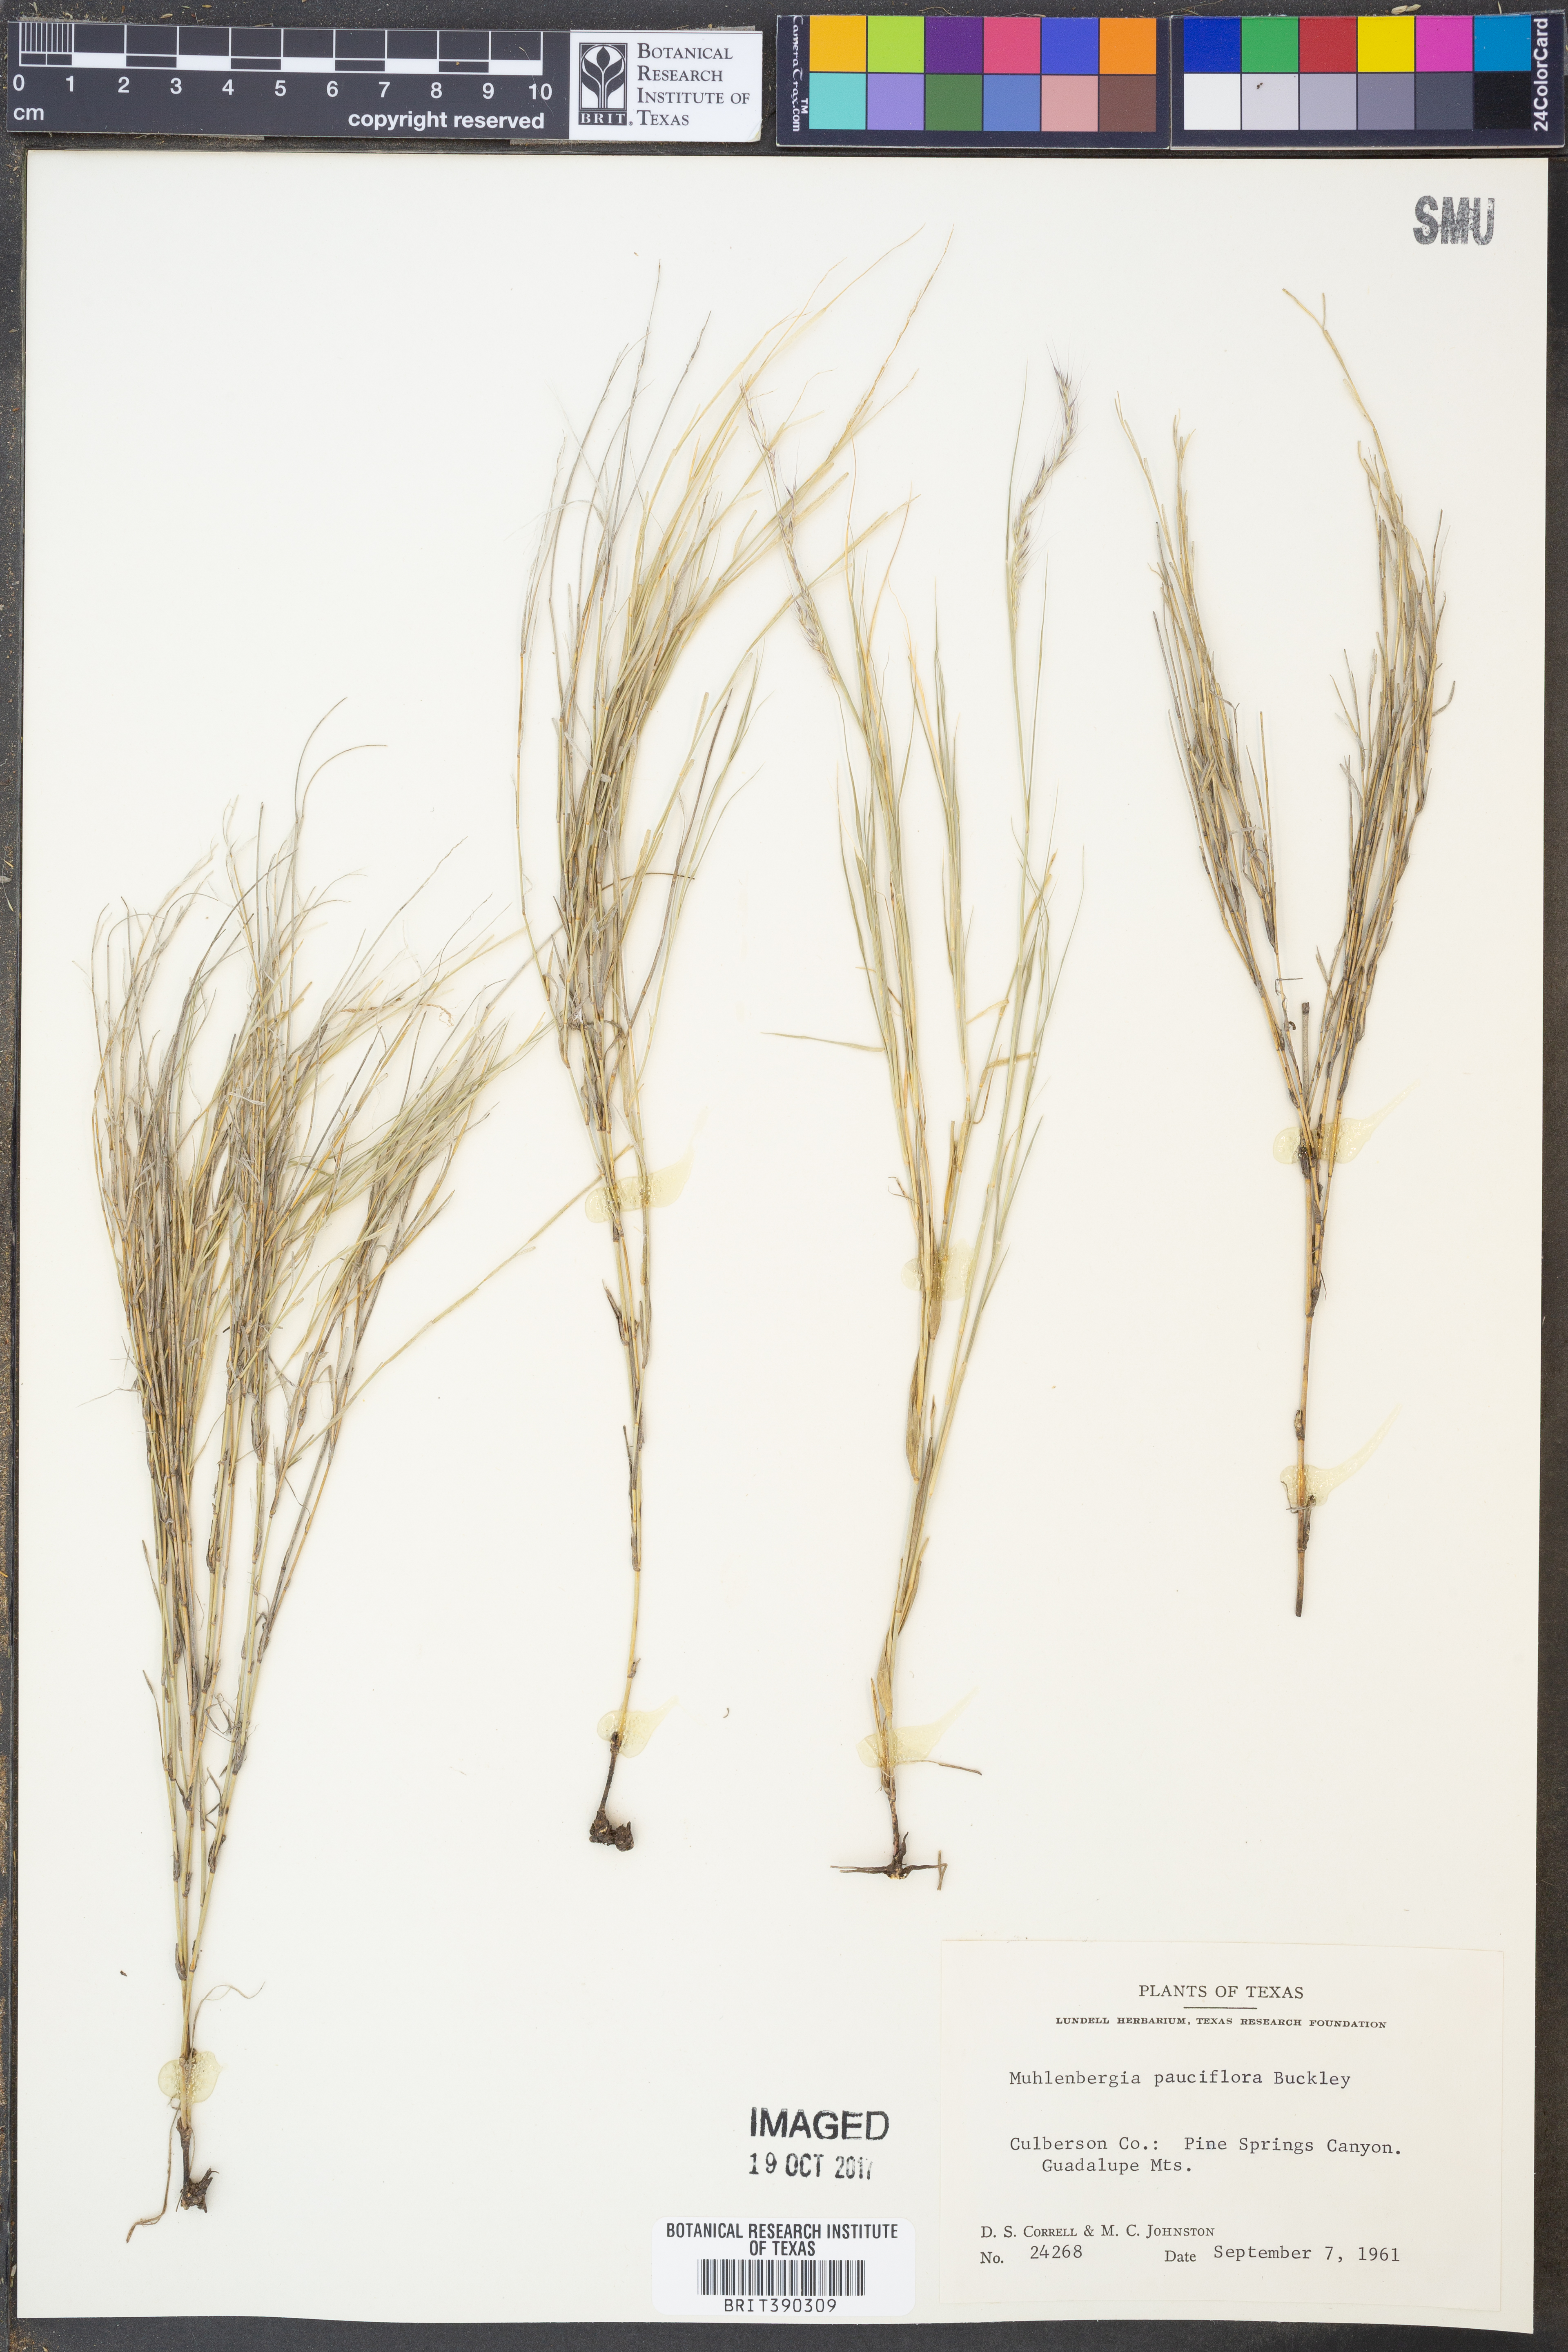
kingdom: Plantae
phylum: Tracheophyta
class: Liliopsida
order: Poales
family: Poaceae
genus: Muhlenbergia
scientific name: Muhlenbergia pauciflora
